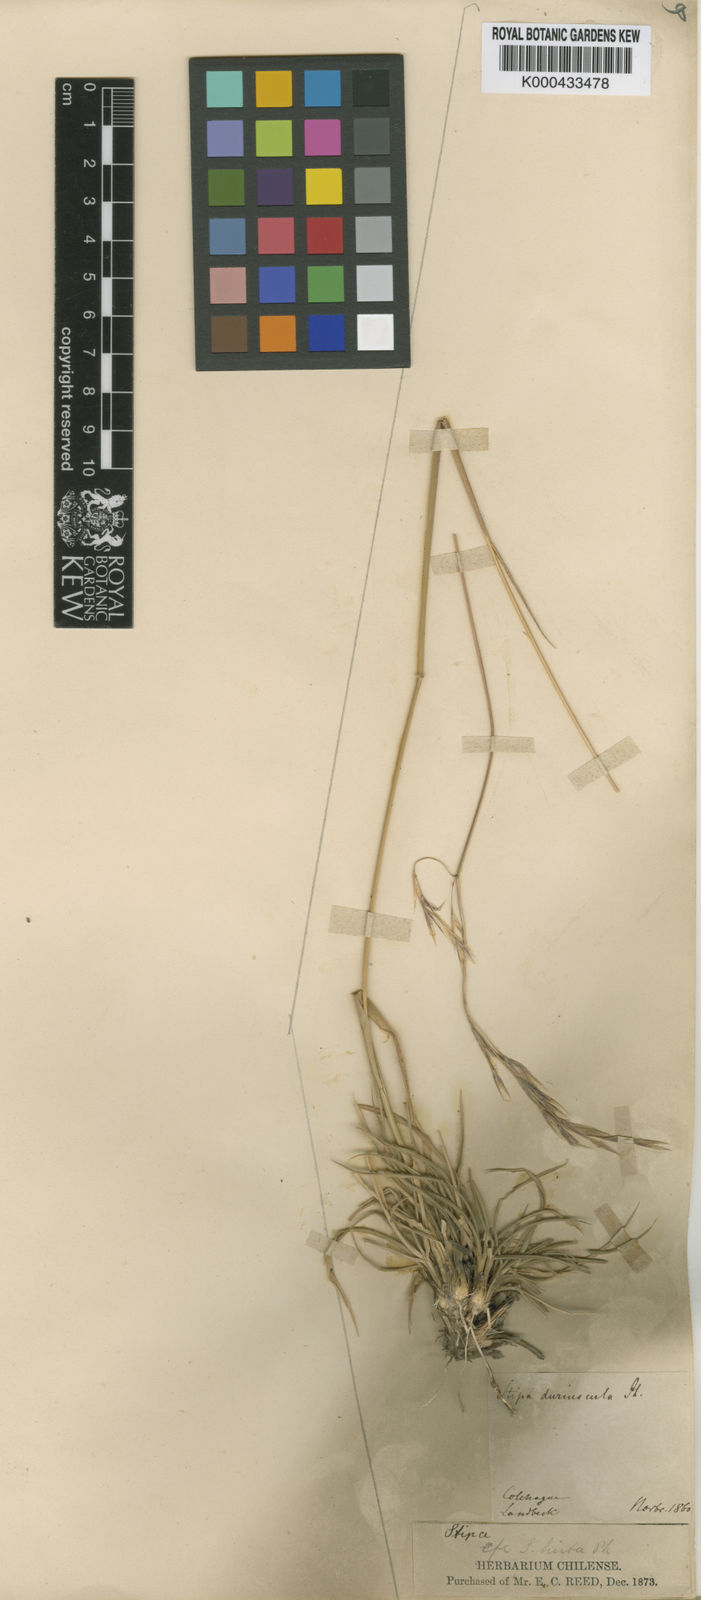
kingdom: Plantae
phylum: Tracheophyta
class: Liliopsida
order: Poales
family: Poaceae
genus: Nassella
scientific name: Nassella duriuscula
